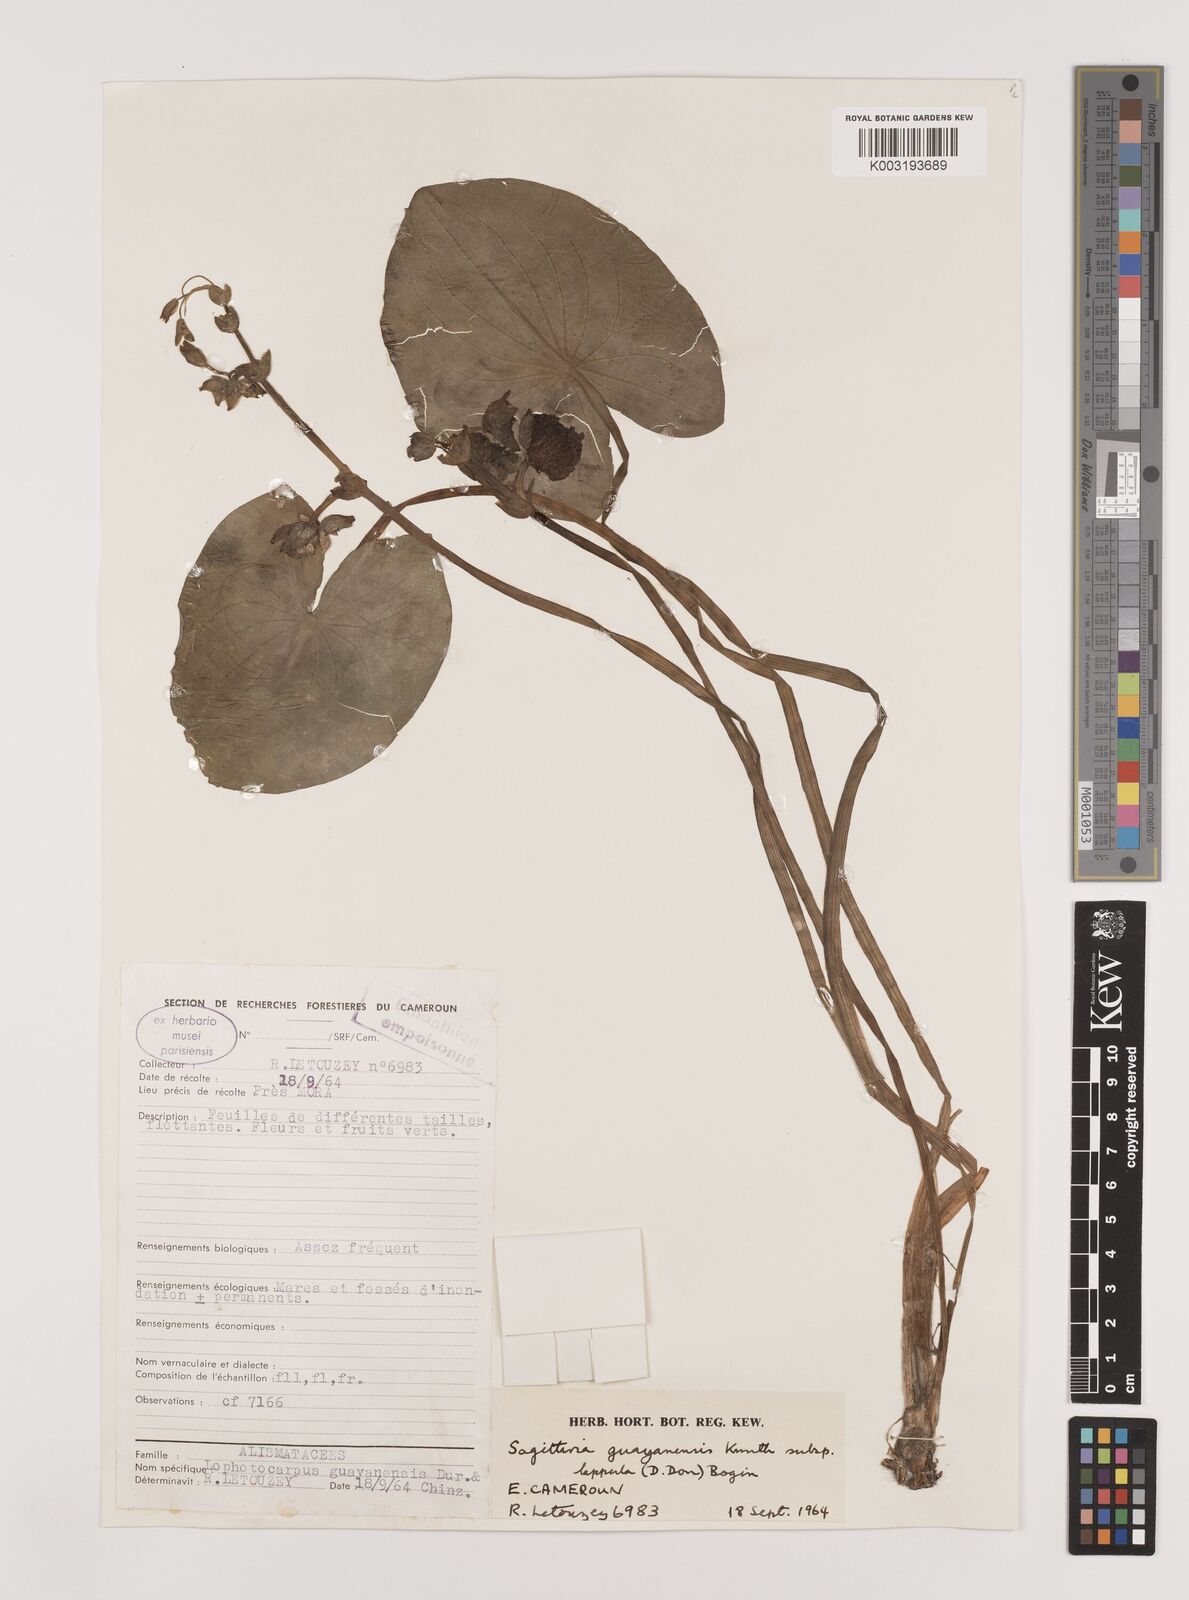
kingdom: Plantae
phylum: Tracheophyta
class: Liliopsida
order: Alismatales
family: Alismataceae
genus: Sagittaria
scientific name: Sagittaria guayanensis
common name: Guyanese arrowhead
